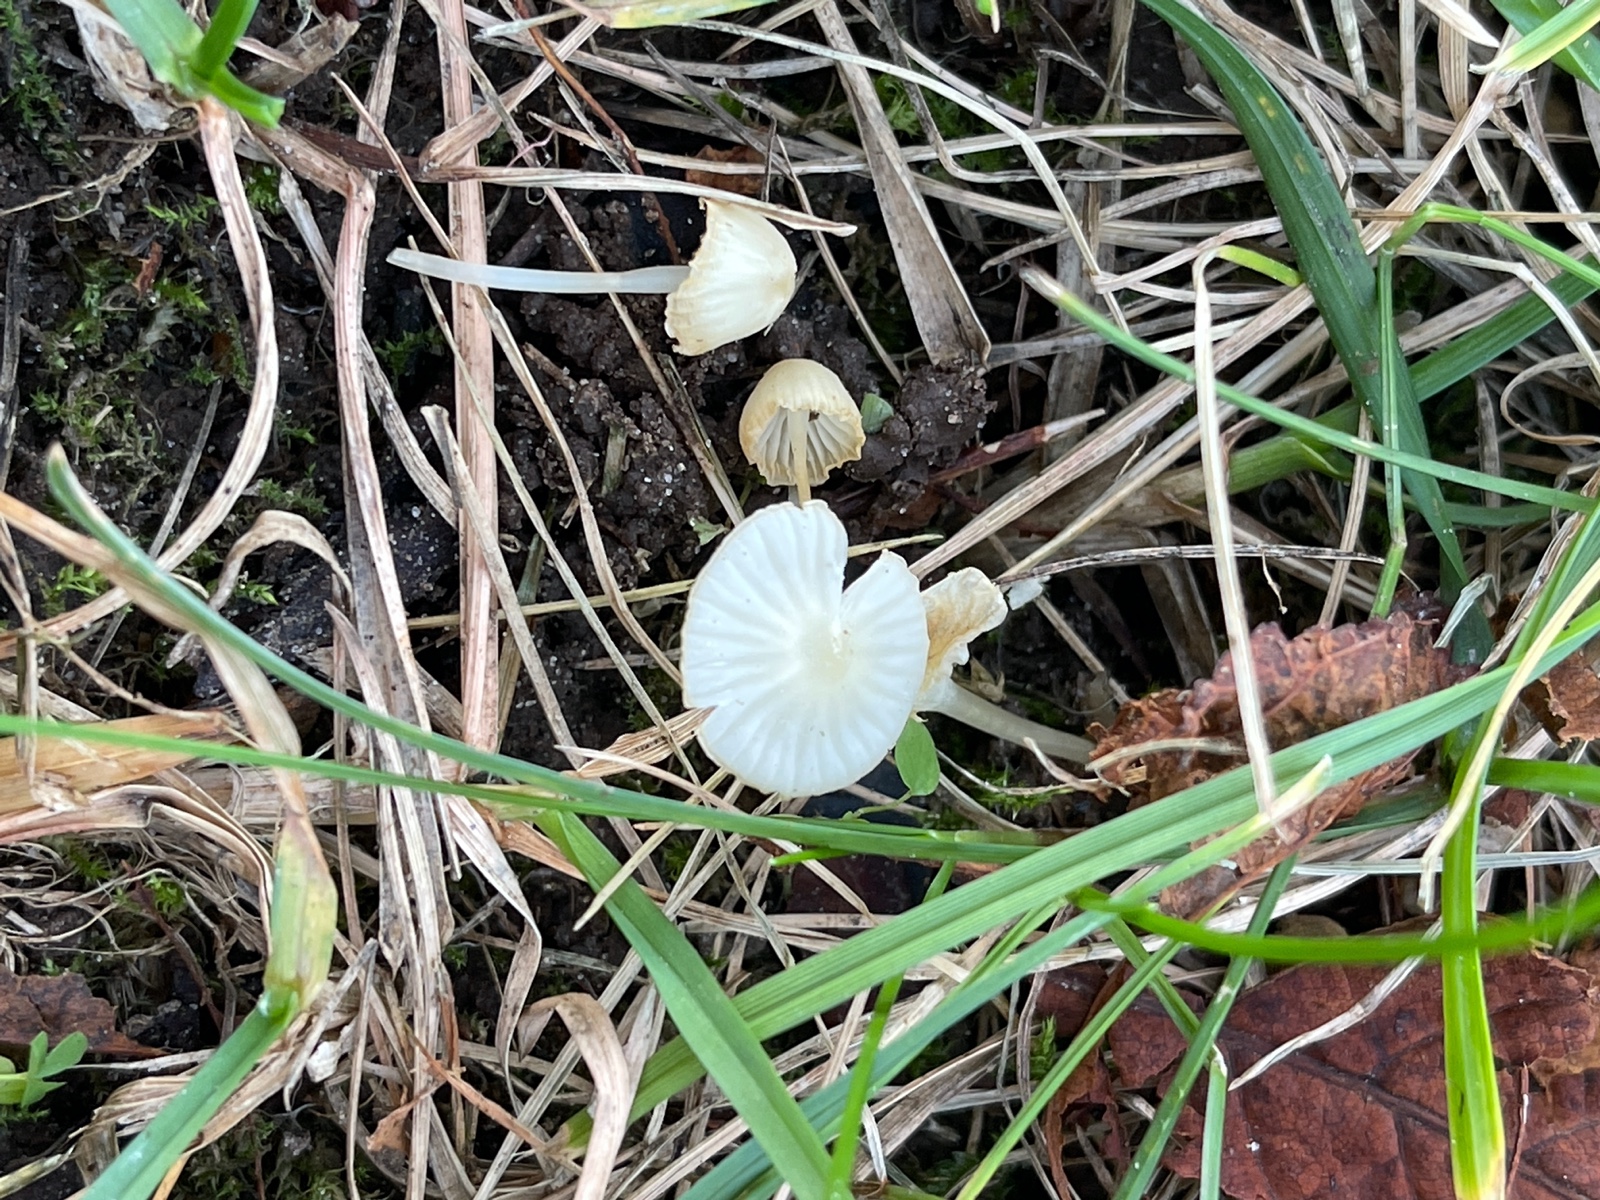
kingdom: Fungi
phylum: Basidiomycota
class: Agaricomycetes
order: Agaricales
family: Mycenaceae
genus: Atheniella
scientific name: Atheniella flavoalba
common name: gulhvid huesvamp
